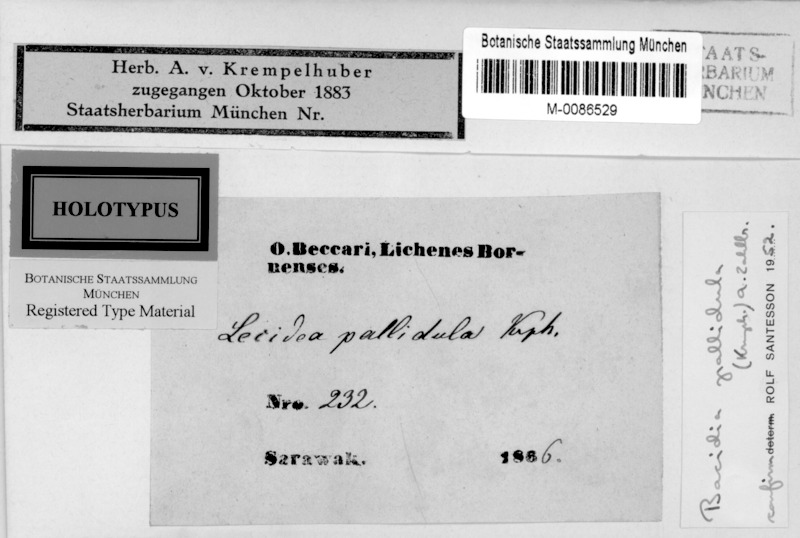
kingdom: Fungi
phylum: Ascomycota
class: Lecanoromycetes
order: Lecanorales
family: Ramalinaceae
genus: Badimia
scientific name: Badimia pallidula
